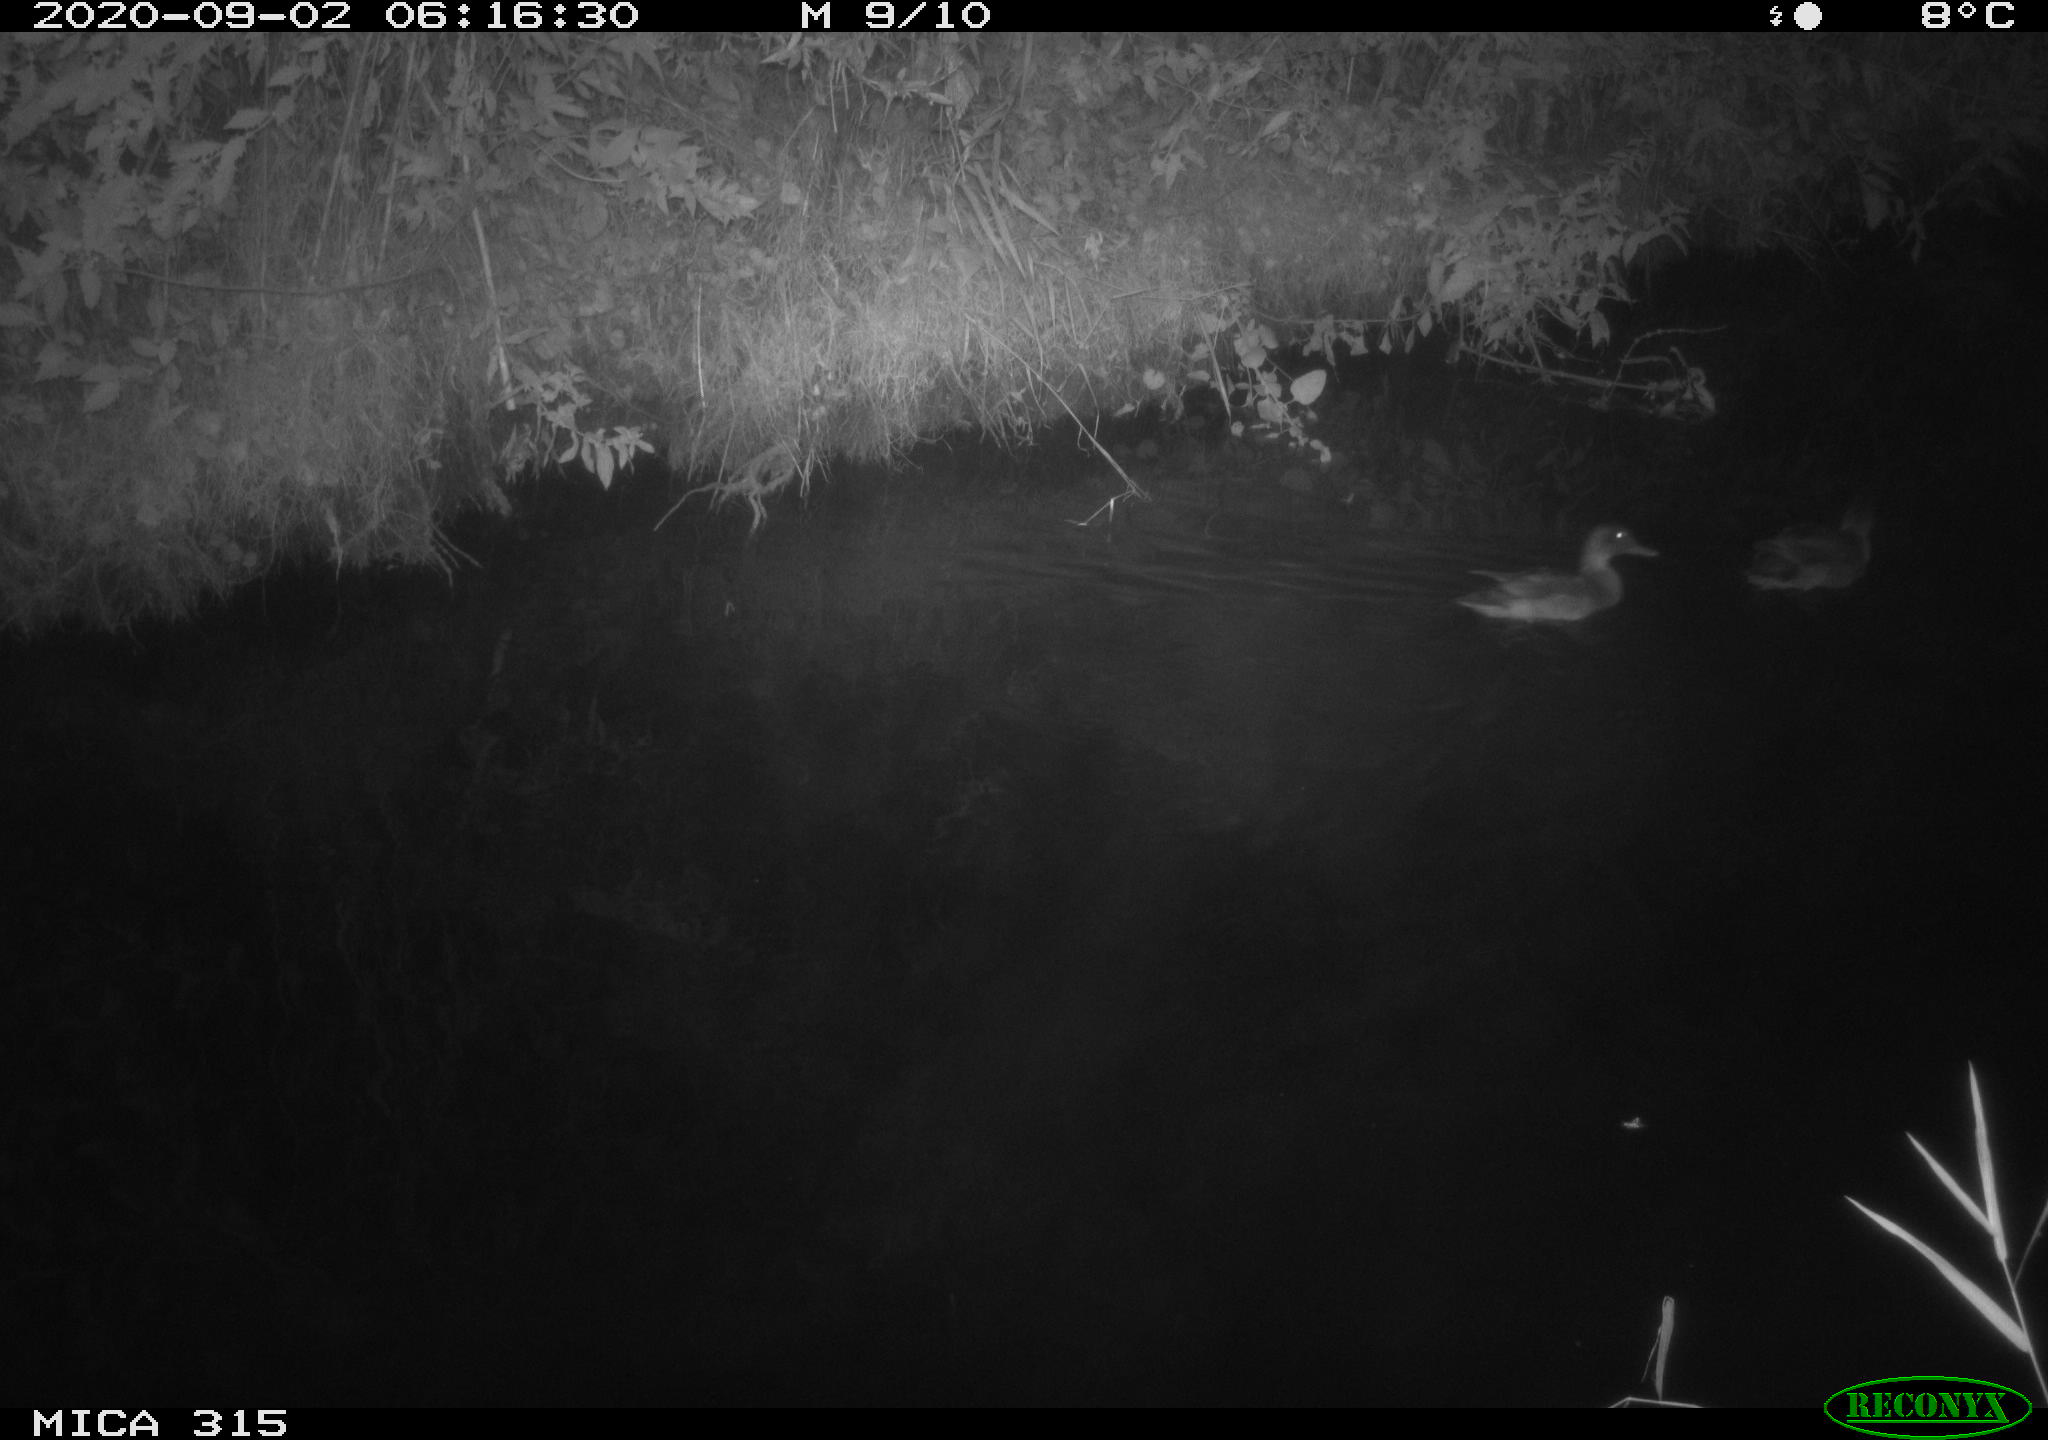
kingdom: Animalia
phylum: Chordata
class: Aves
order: Anseriformes
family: Anatidae
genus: Anas
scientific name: Anas platyrhynchos
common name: Mallard
